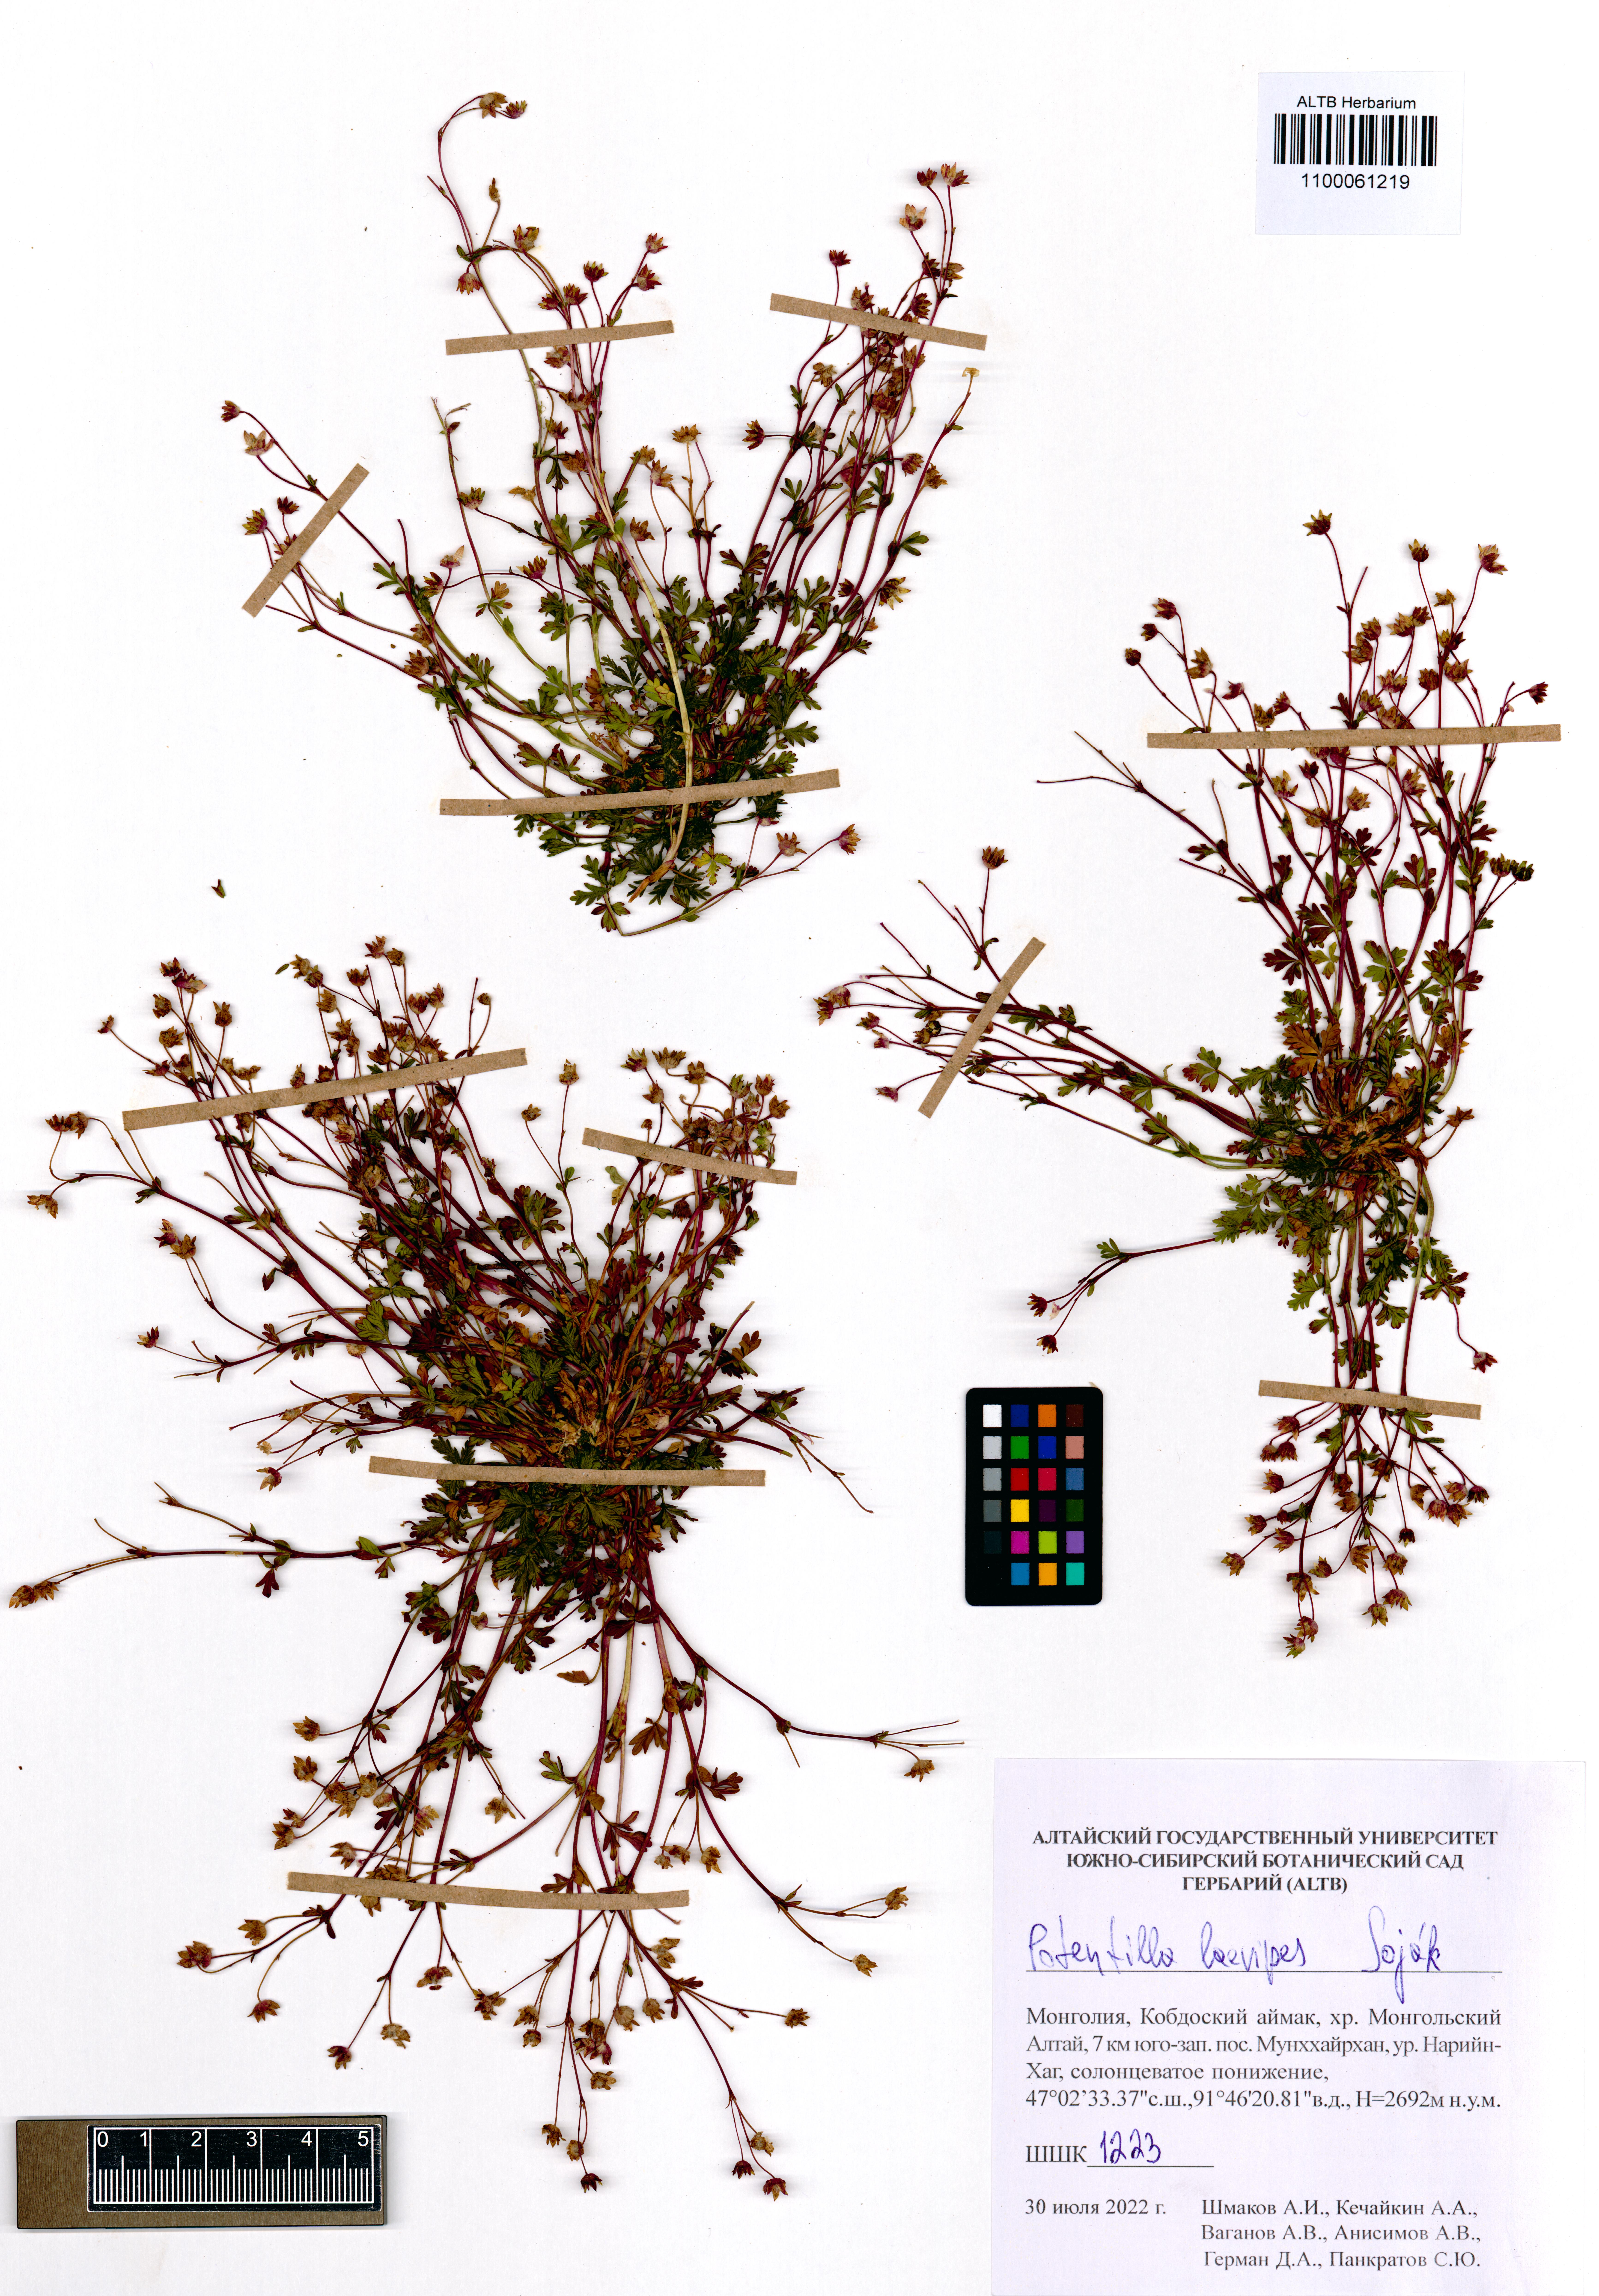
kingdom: Plantae
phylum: Tracheophyta
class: Magnoliopsida
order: Rosales
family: Rosaceae
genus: Potentilla
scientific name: Potentilla laevipes
